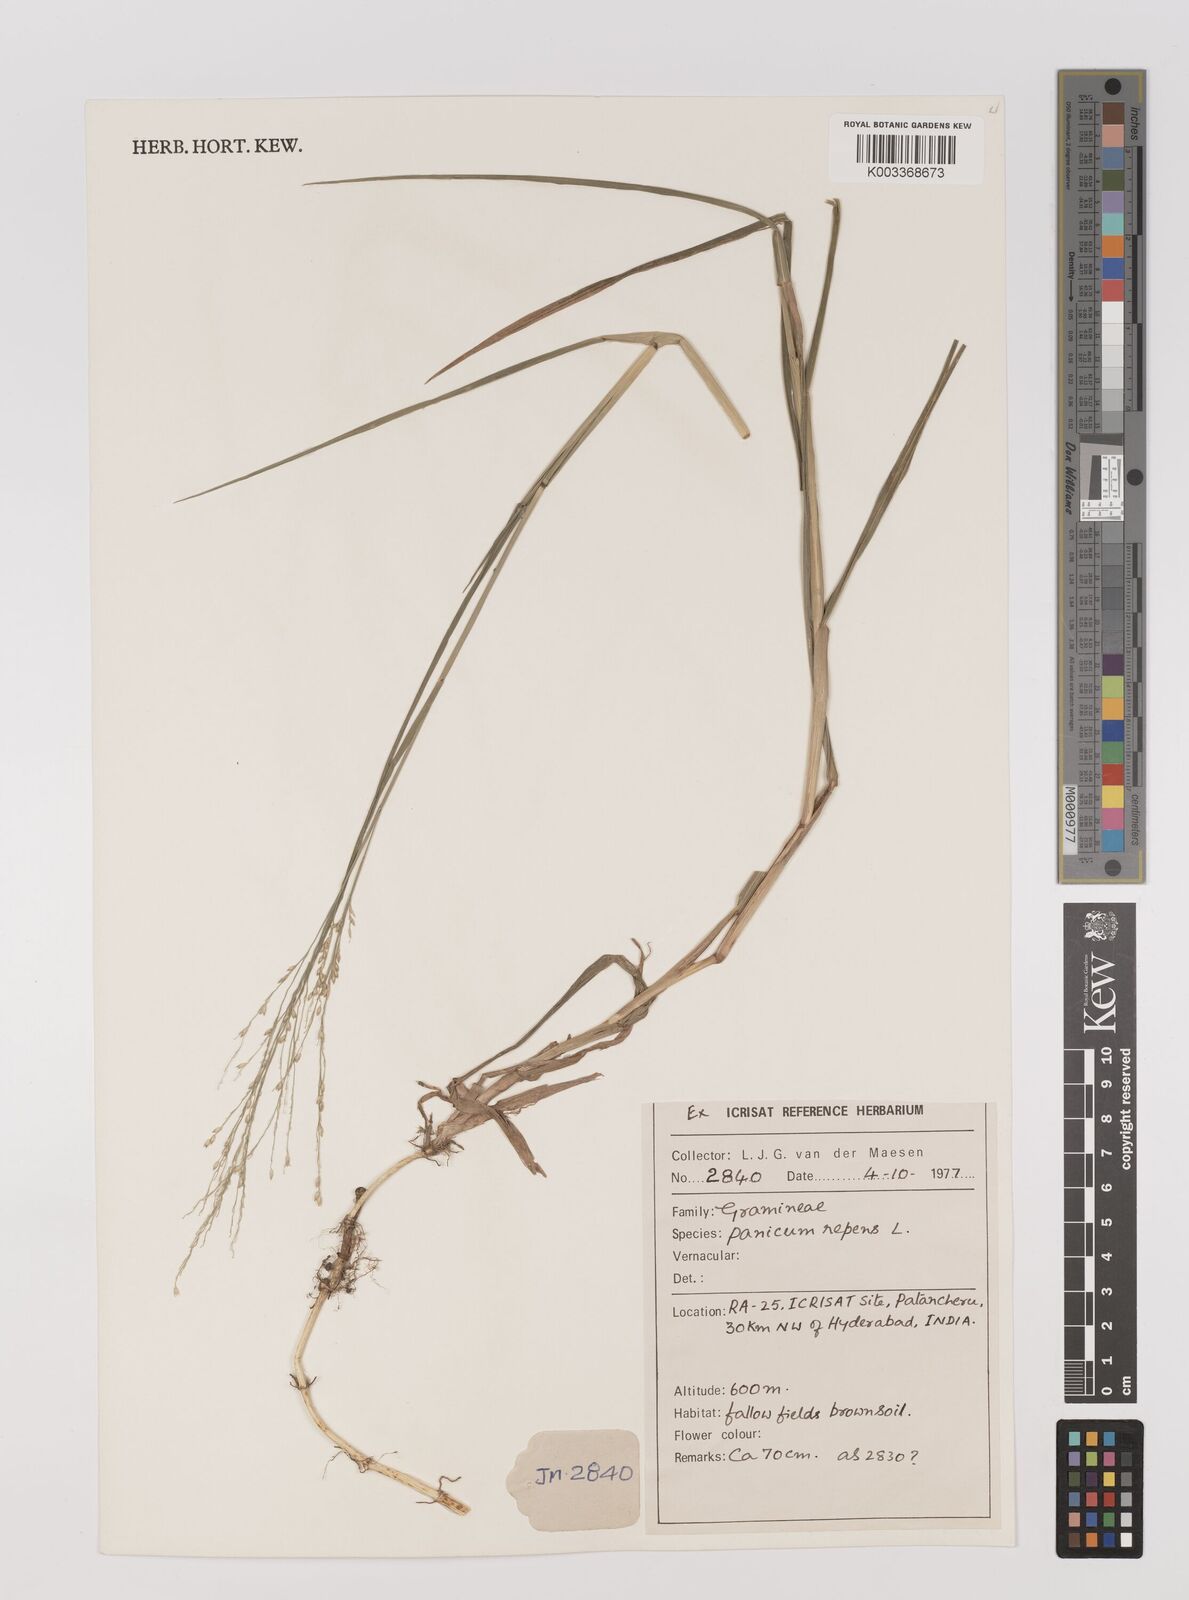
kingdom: Plantae
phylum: Tracheophyta
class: Liliopsida
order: Poales
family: Poaceae
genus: Panicum
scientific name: Panicum repens
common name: Torpedo grass
